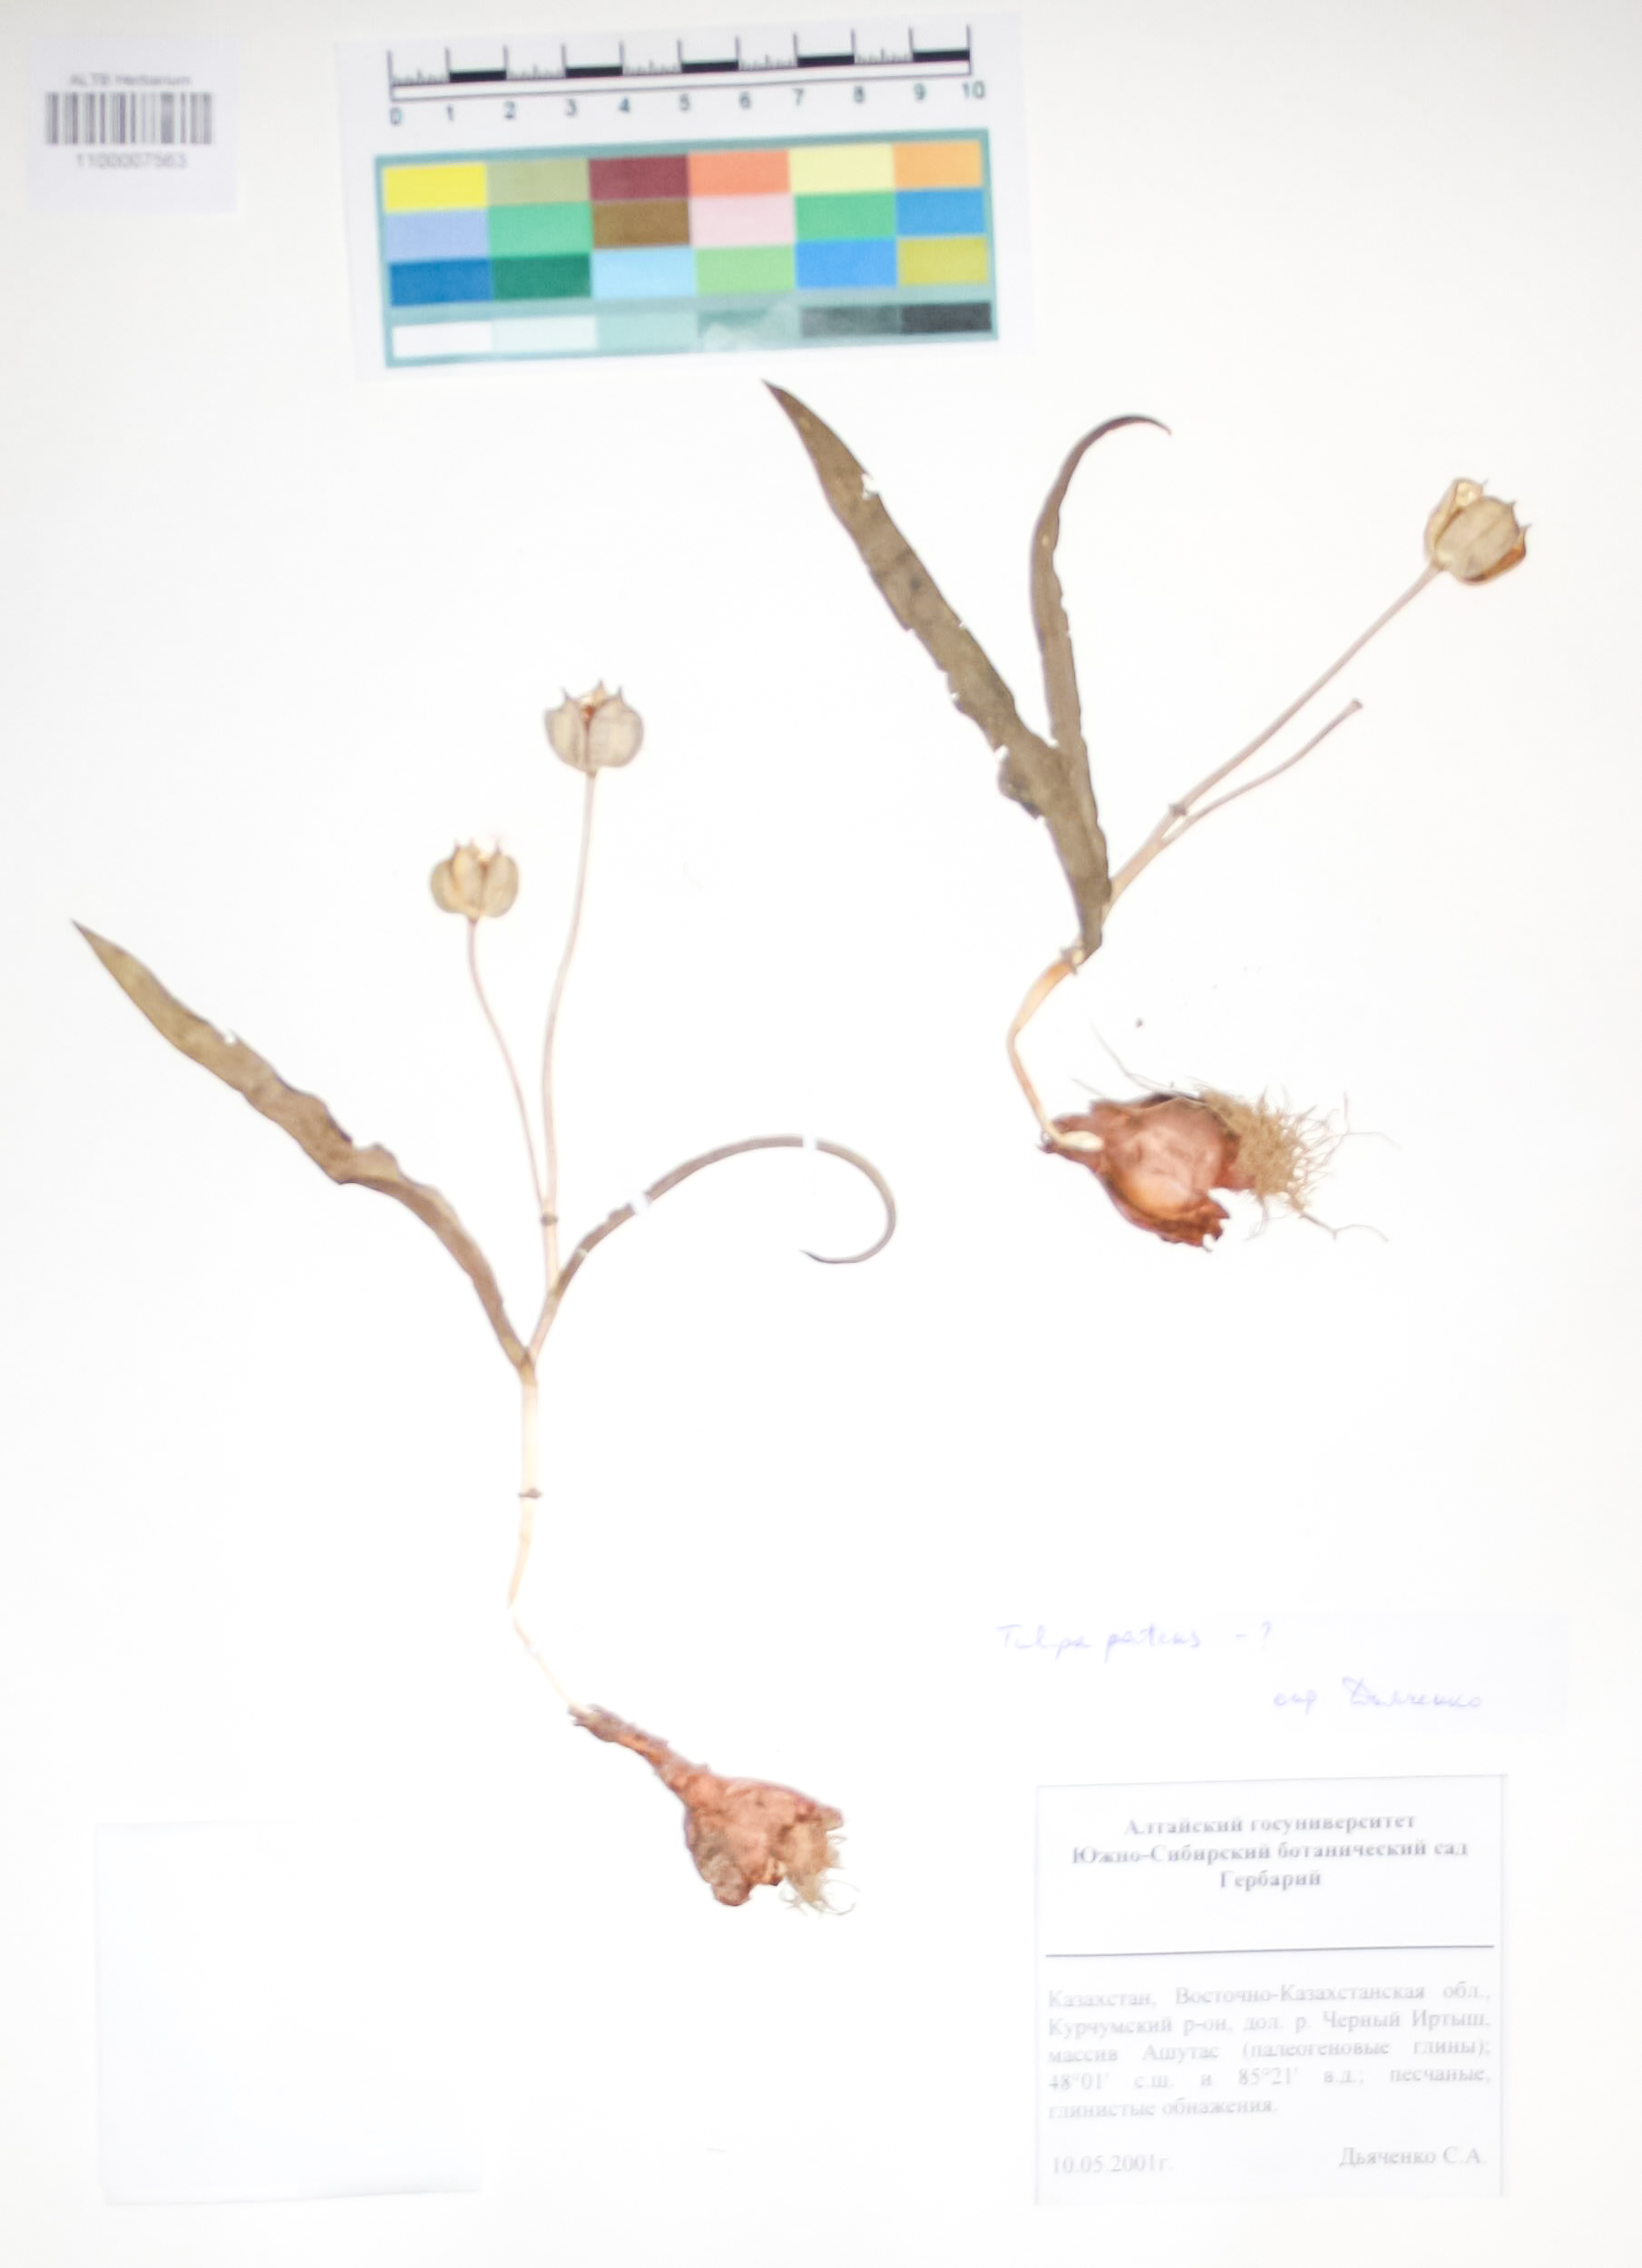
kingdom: Plantae
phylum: Tracheophyta
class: Liliopsida
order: Liliales
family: Liliaceae
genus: Tulipa
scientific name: Tulipa patens
